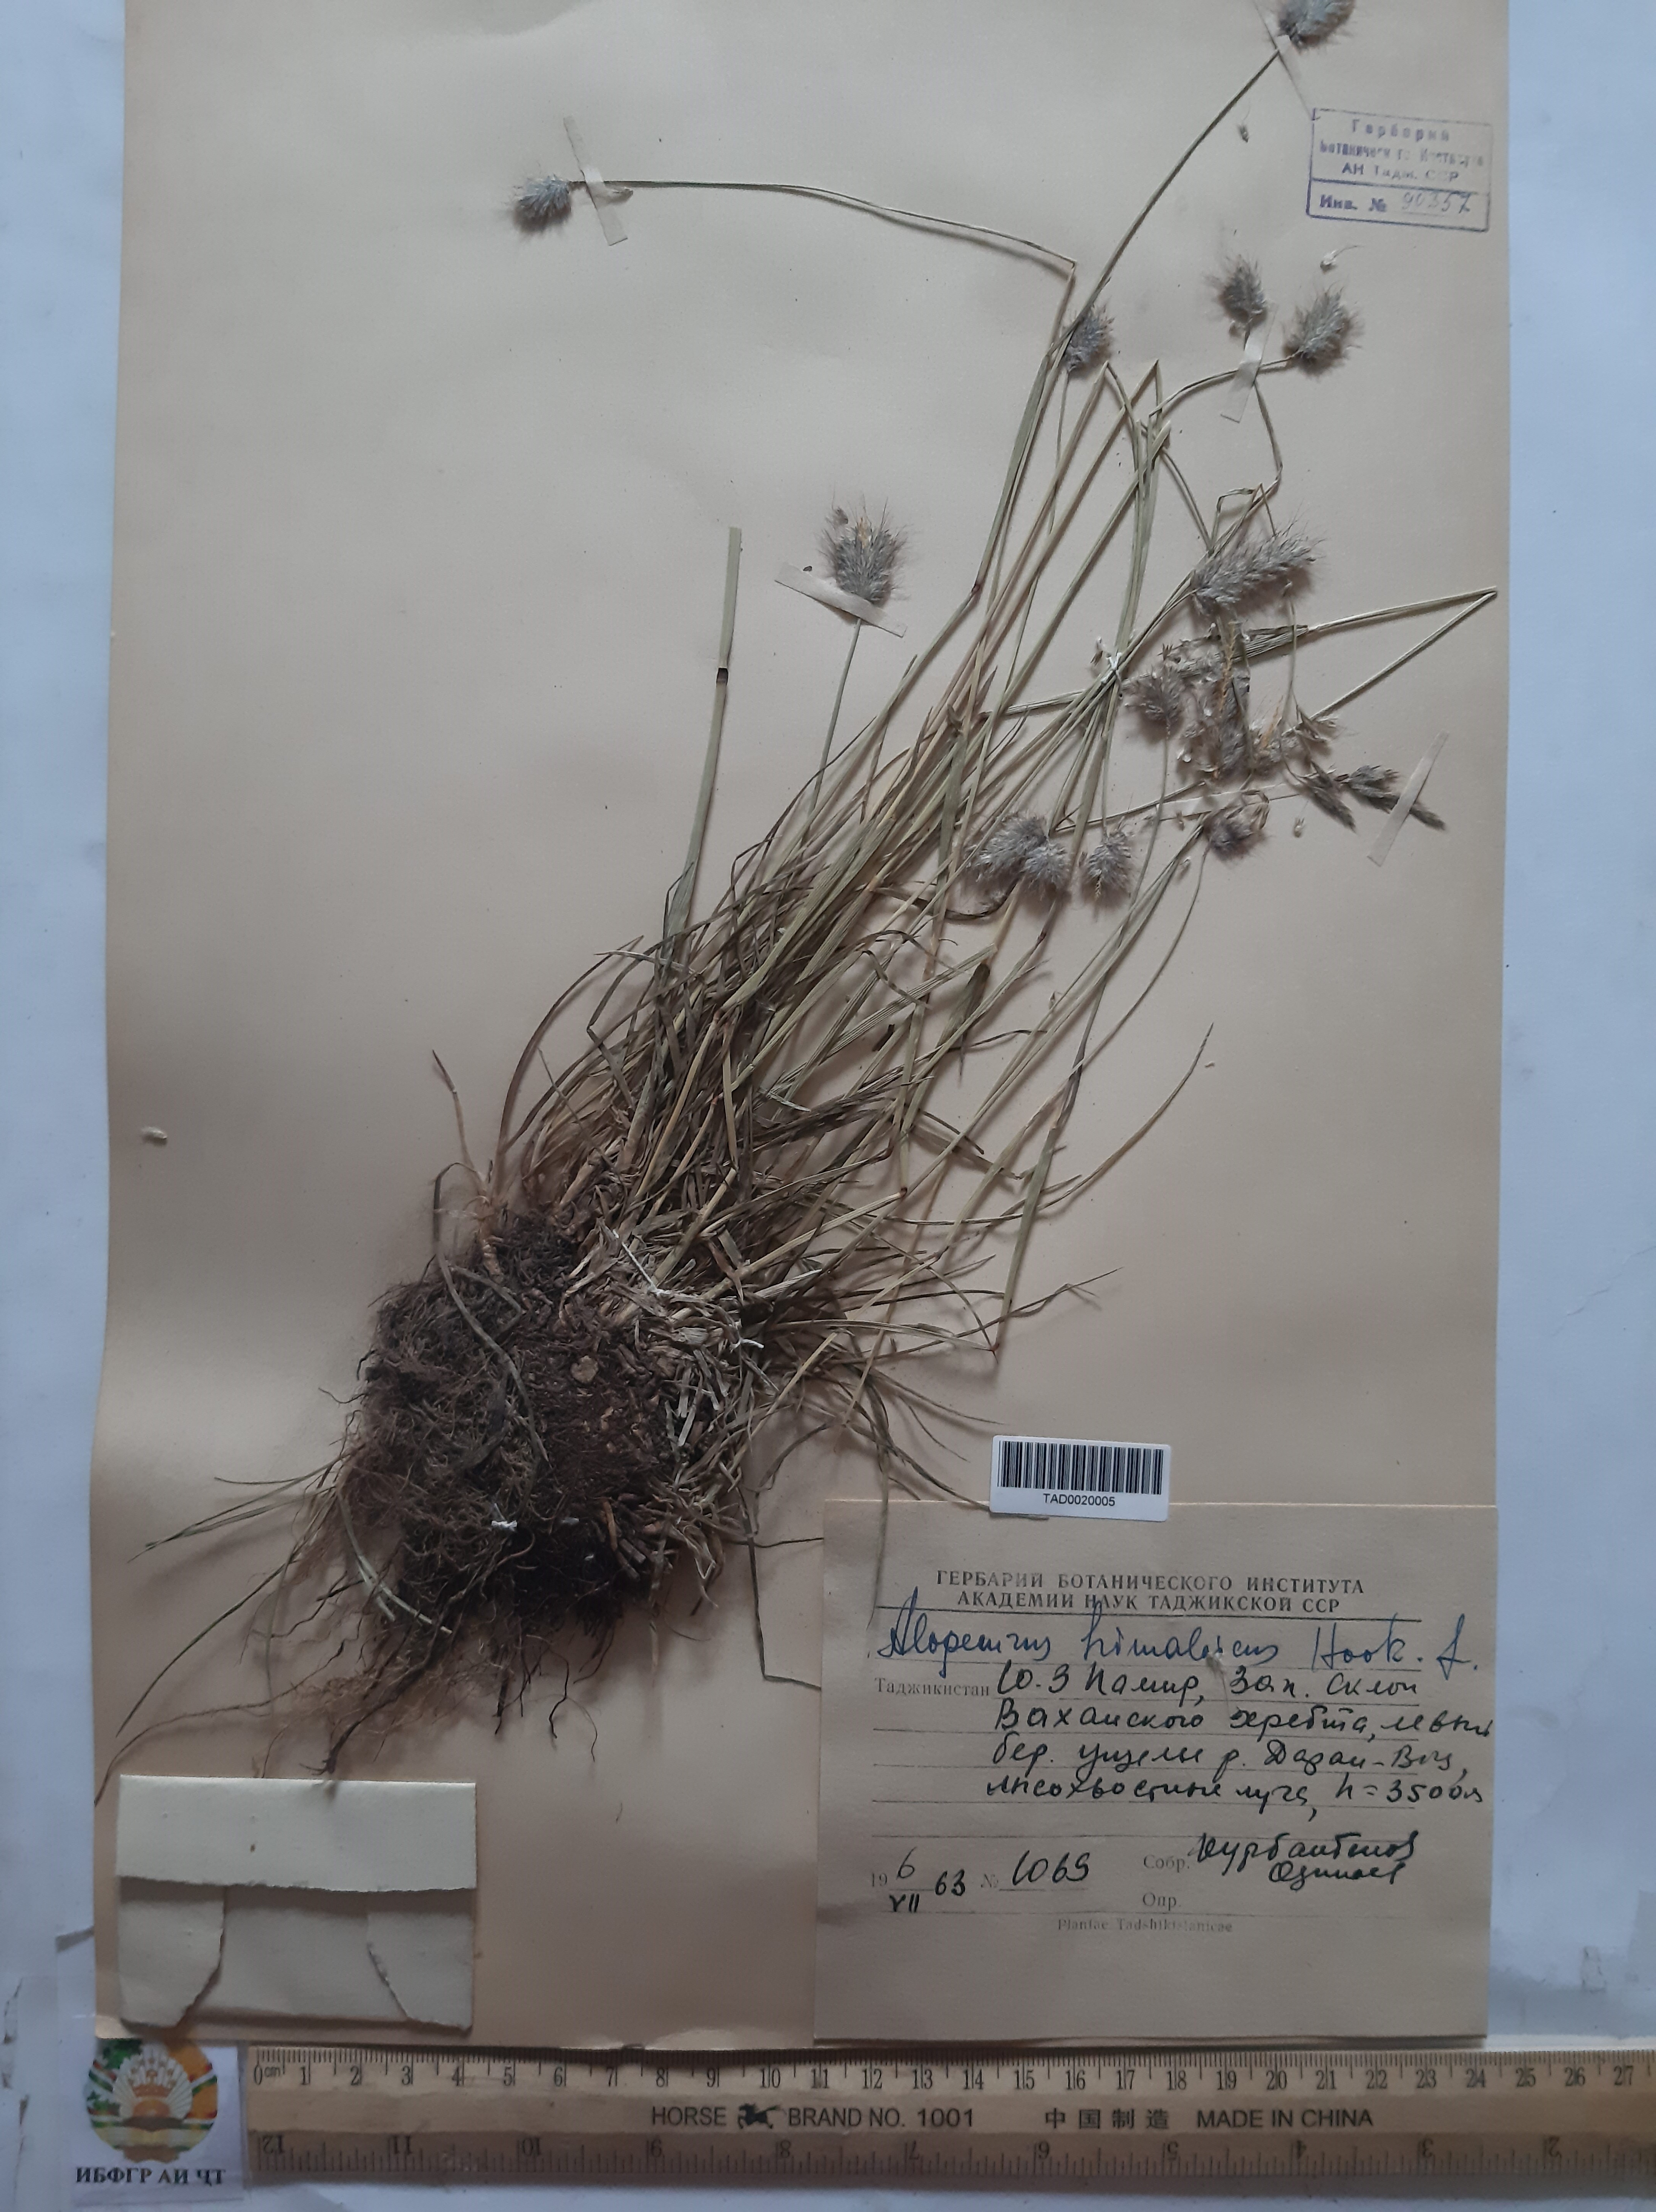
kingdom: Plantae
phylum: Tracheophyta
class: Liliopsida
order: Poales
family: Poaceae
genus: Alopecurus
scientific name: Alopecurus himalaicus
